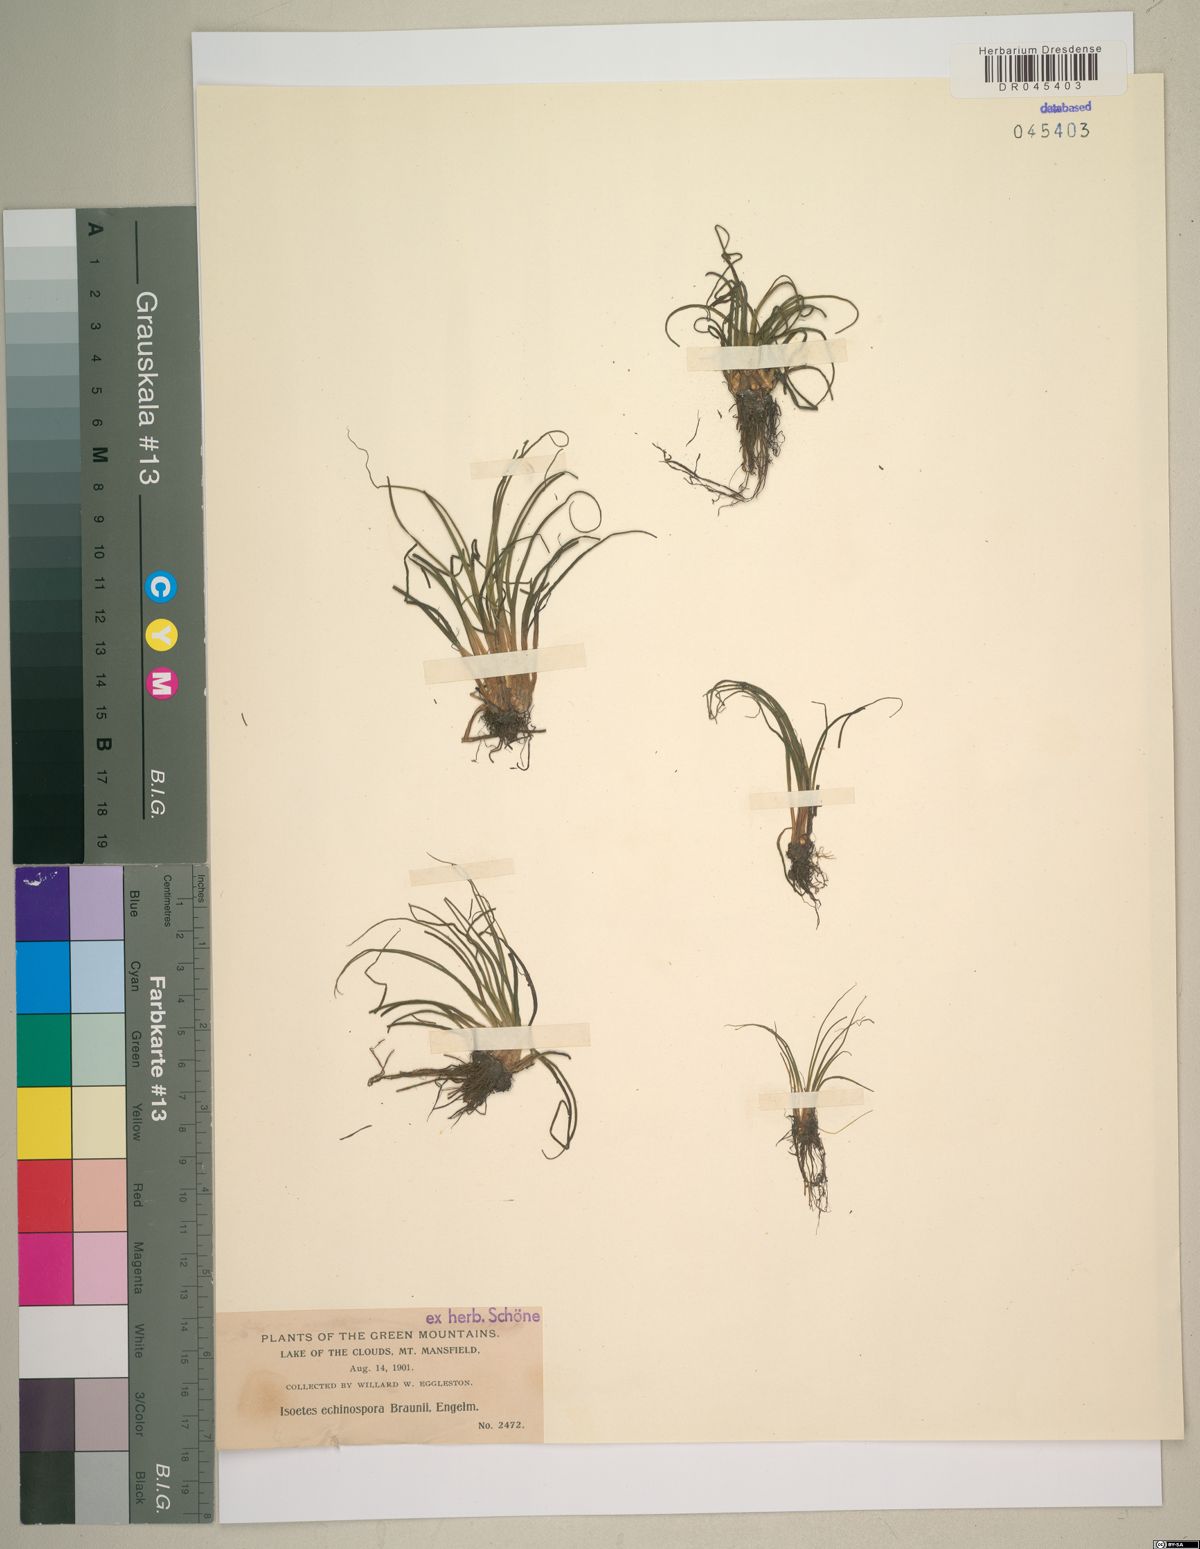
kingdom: Plantae
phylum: Tracheophyta
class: Lycopodiopsida
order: Isoetales
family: Isoetaceae
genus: Isoetes
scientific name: Isoetes echinospora
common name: Spring quillwort
